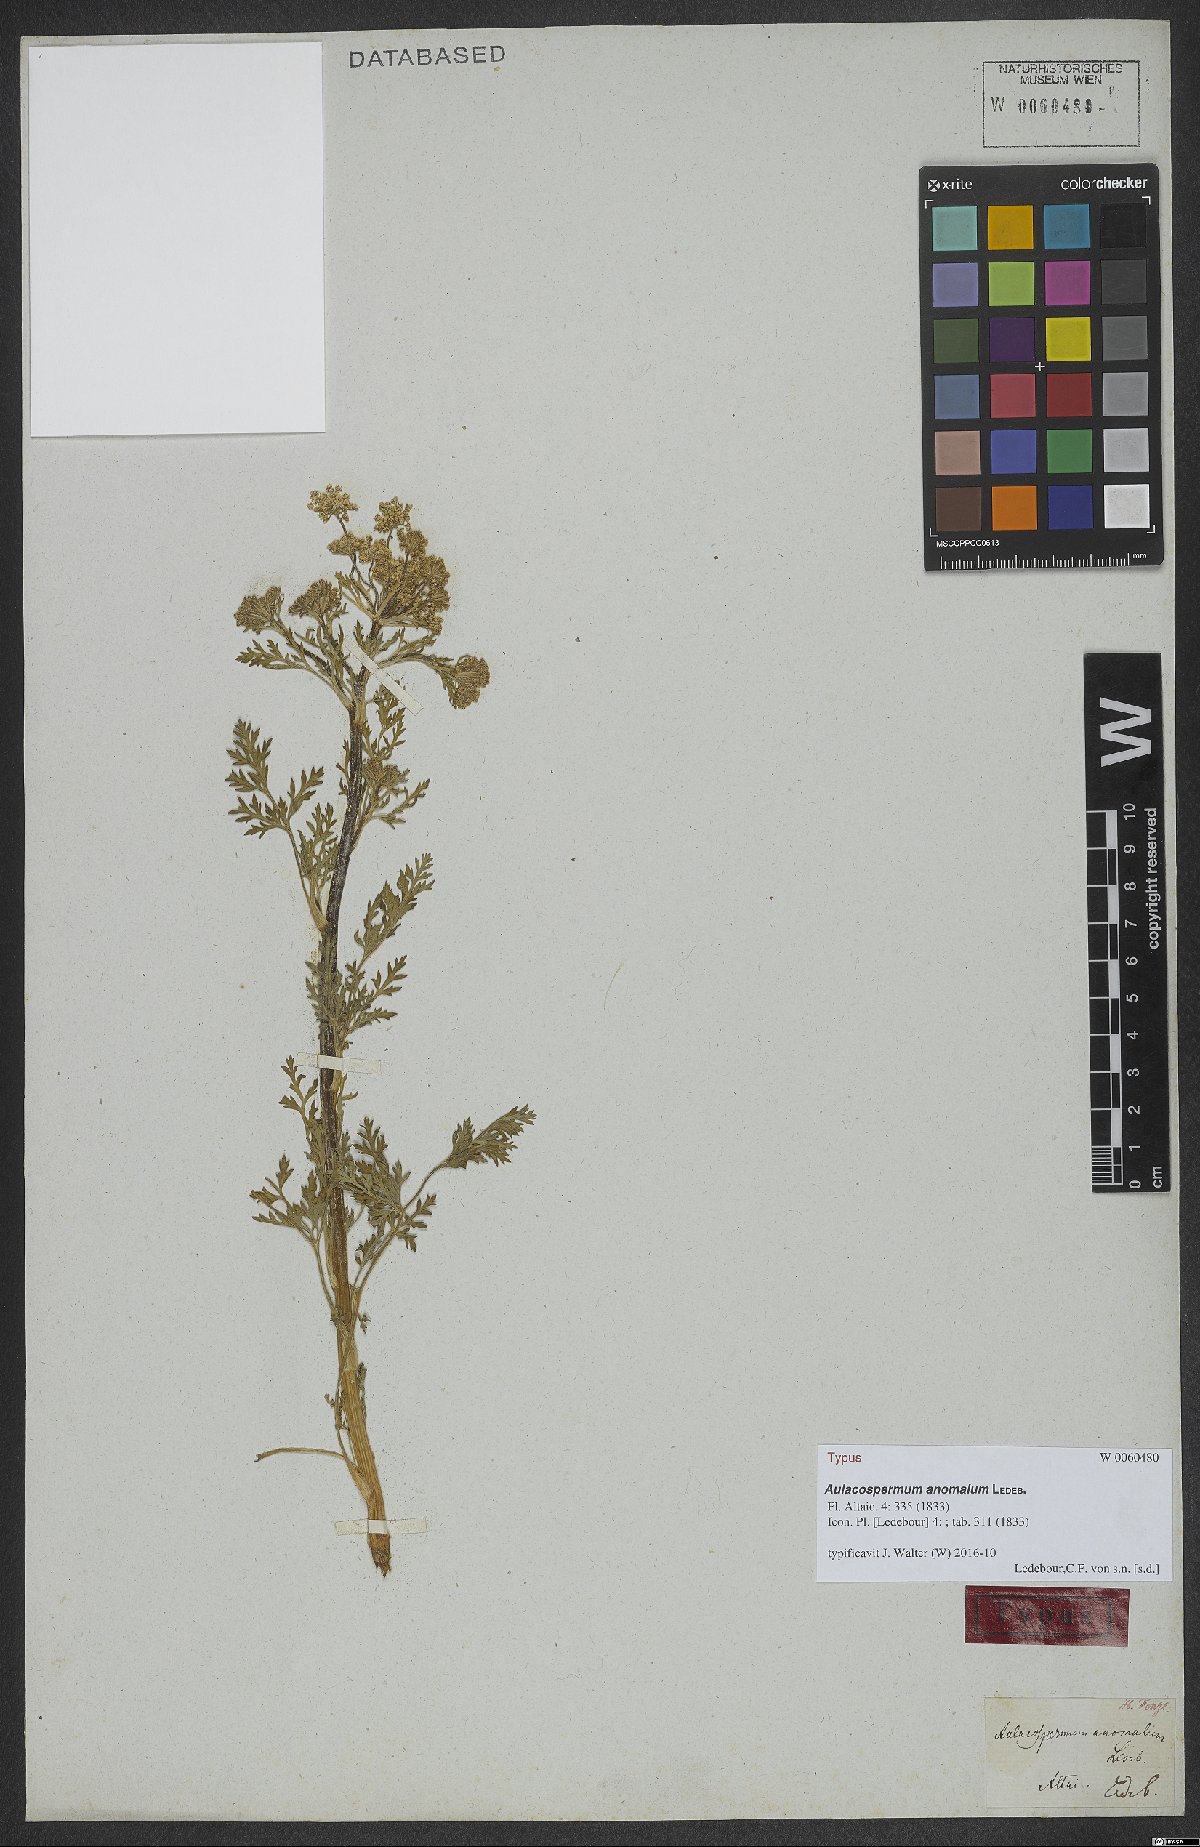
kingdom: Plantae
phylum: Tracheophyta
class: Magnoliopsida
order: Apiales
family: Apiaceae
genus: Aulacospermum
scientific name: Aulacospermum anomalum
